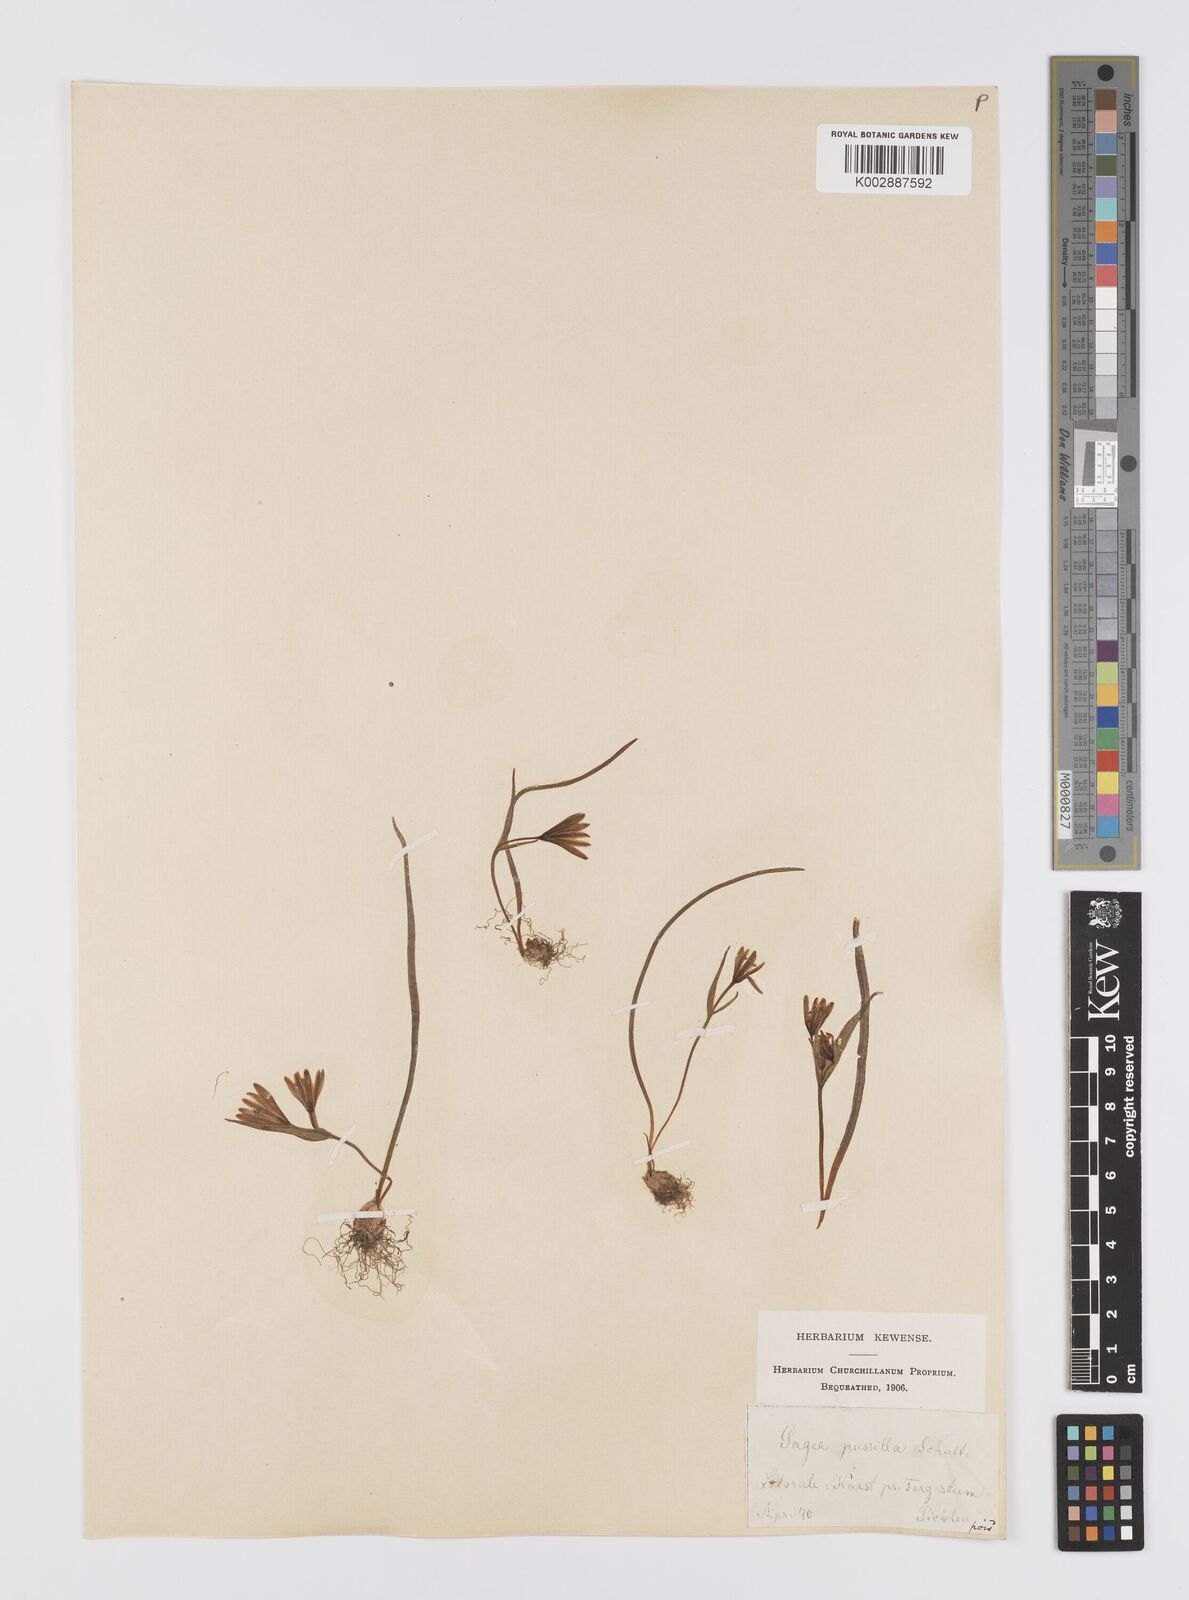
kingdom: Plantae
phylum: Tracheophyta
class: Liliopsida
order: Liliales
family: Liliaceae
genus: Gagea
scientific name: Gagea pusilla
